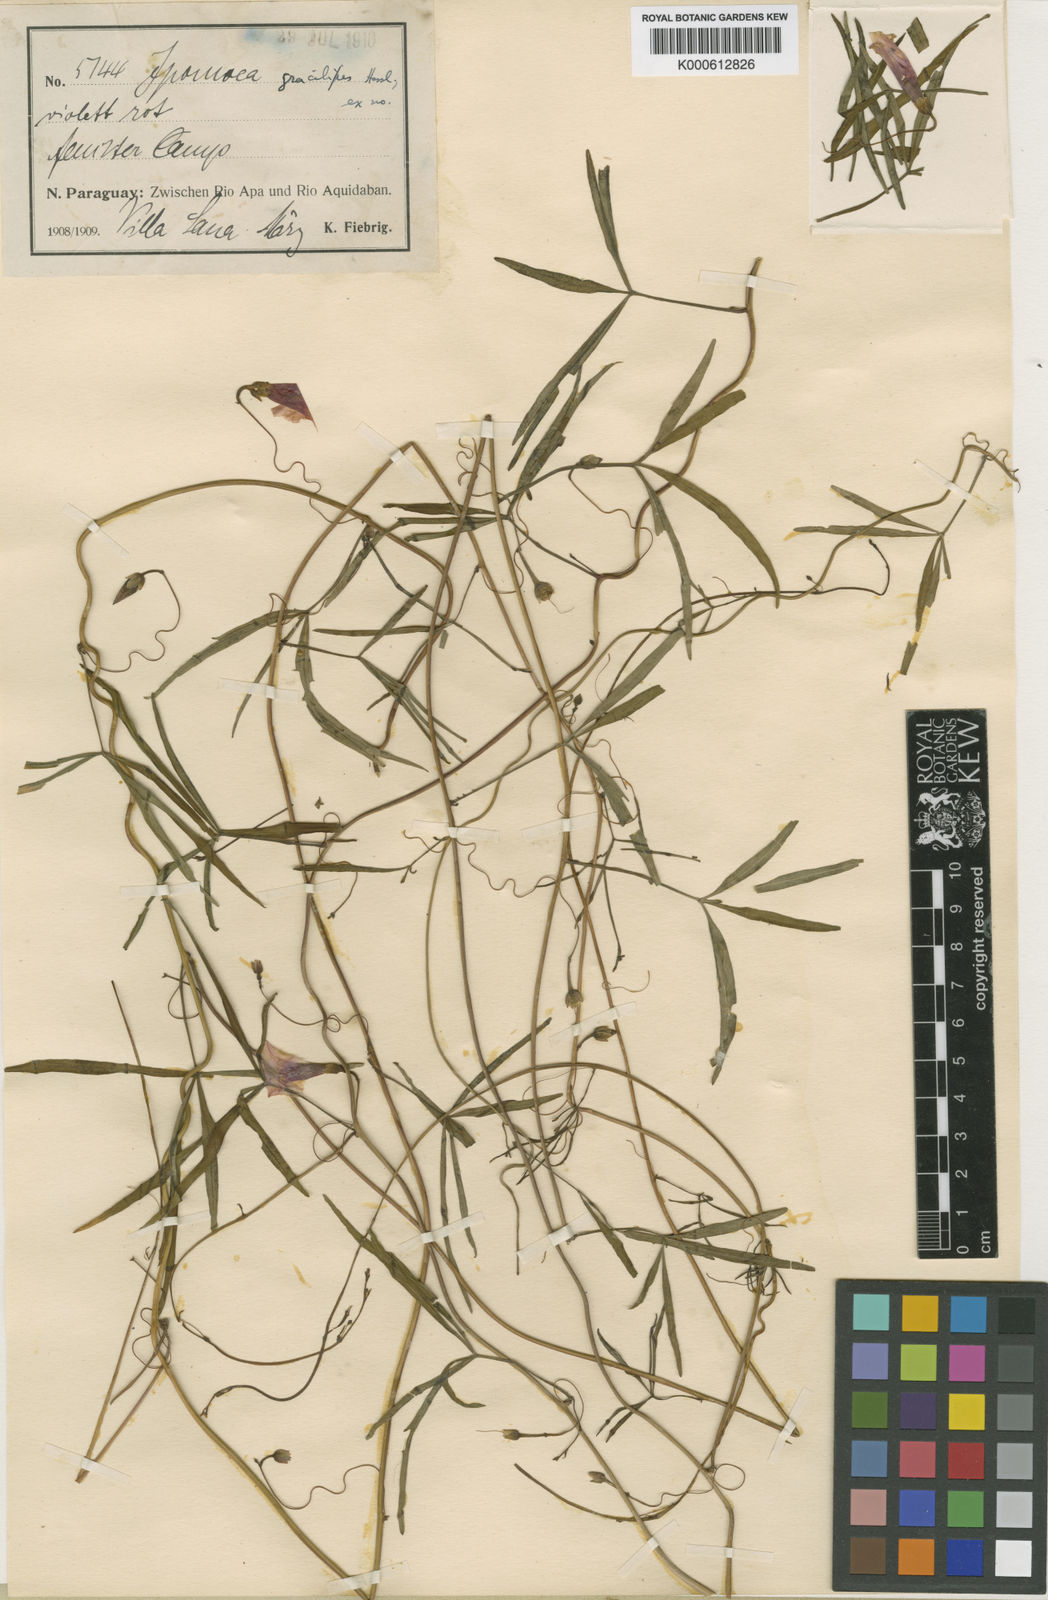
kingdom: Plantae
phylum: Tracheophyta
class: Magnoliopsida
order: Solanales
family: Convolvulaceae
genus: Ipomoea
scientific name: Ipomoea heptaphylla
